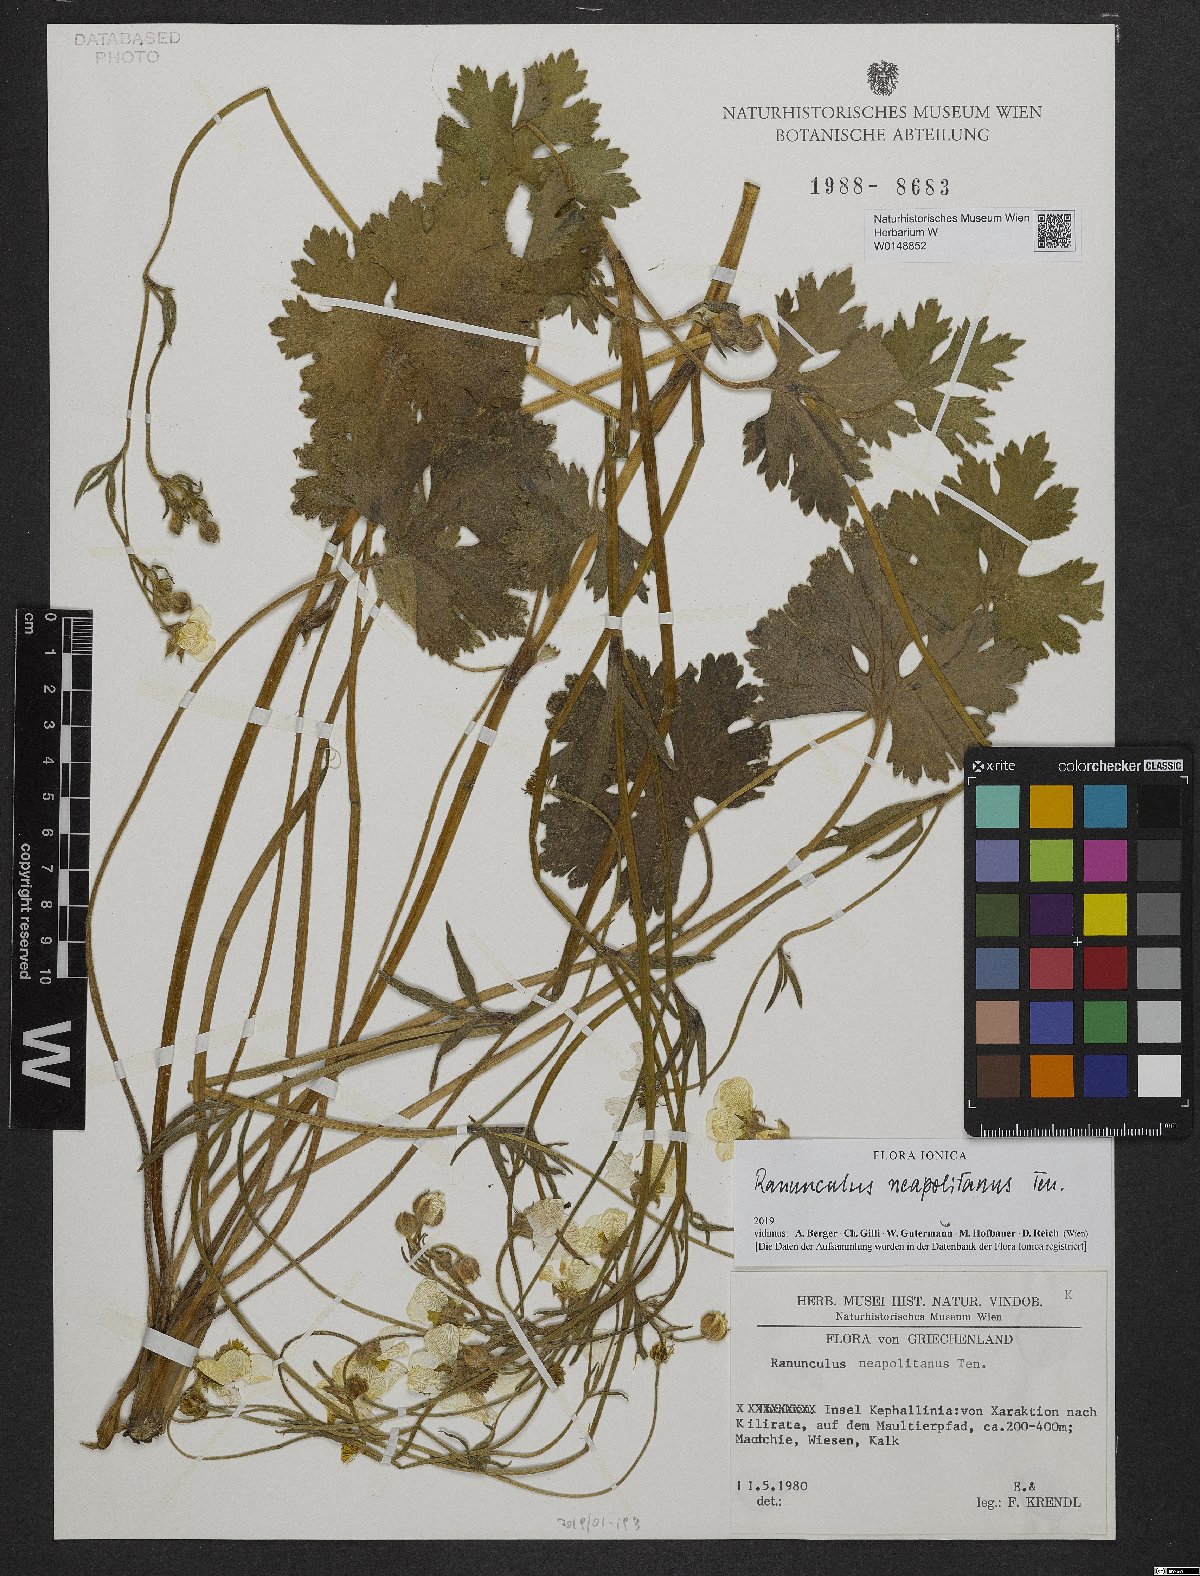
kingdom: Plantae
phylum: Tracheophyta
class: Magnoliopsida
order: Ranunculales
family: Ranunculaceae
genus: Ranunculus
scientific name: Ranunculus neapolitanus
